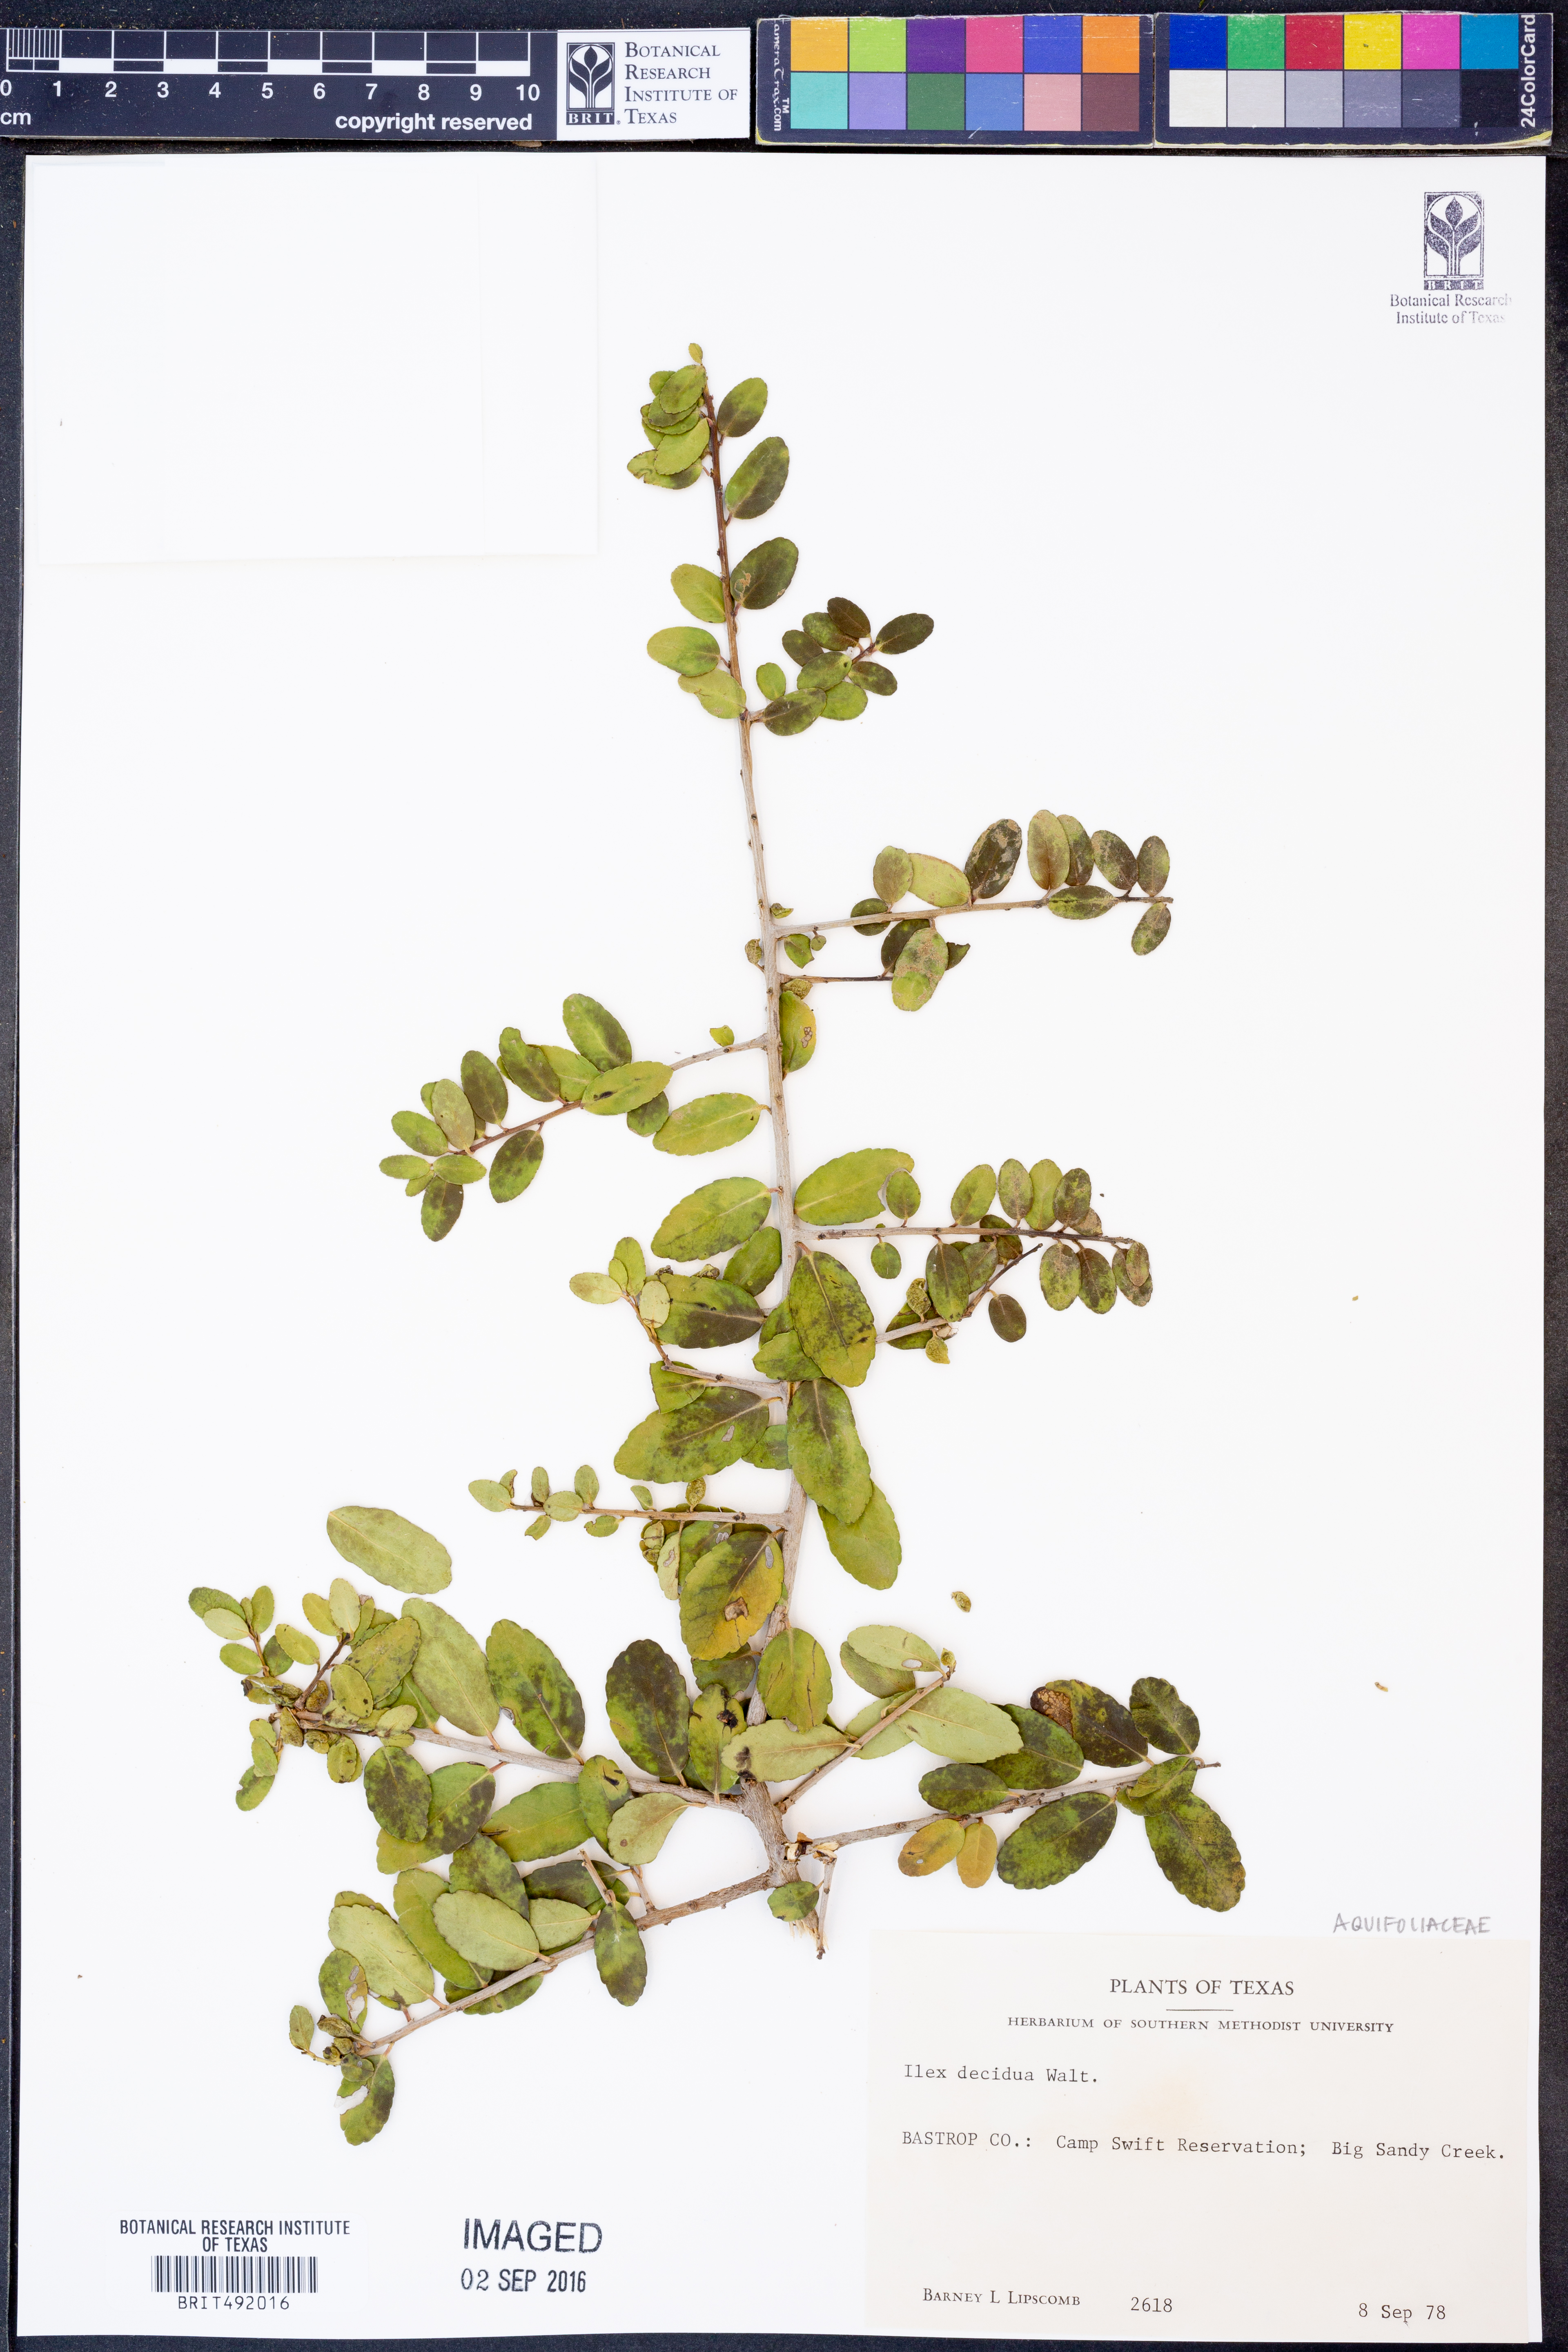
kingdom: Plantae
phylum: Tracheophyta
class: Magnoliopsida
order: Aquifoliales
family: Aquifoliaceae
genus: Ilex
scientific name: Ilex decidua
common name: Possum-haw
